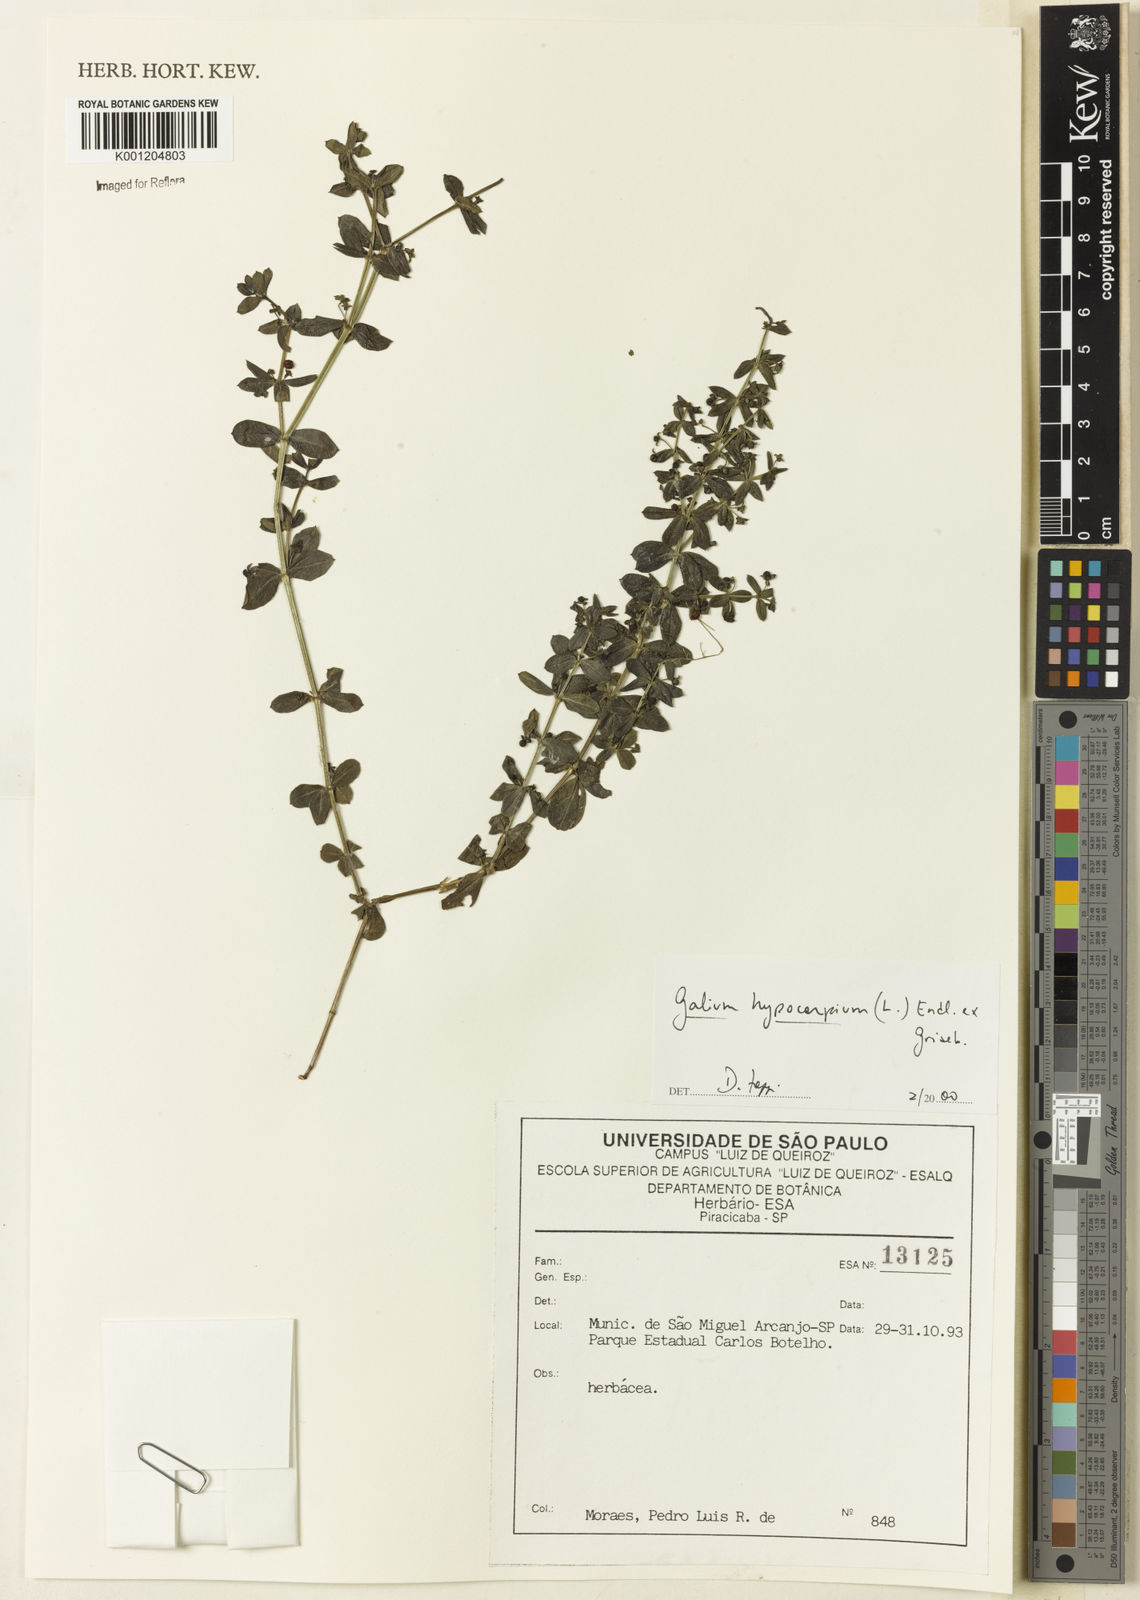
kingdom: Plantae
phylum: Tracheophyta
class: Magnoliopsida
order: Gentianales
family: Rubiaceae
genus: Galium
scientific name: Galium hypocarpium
